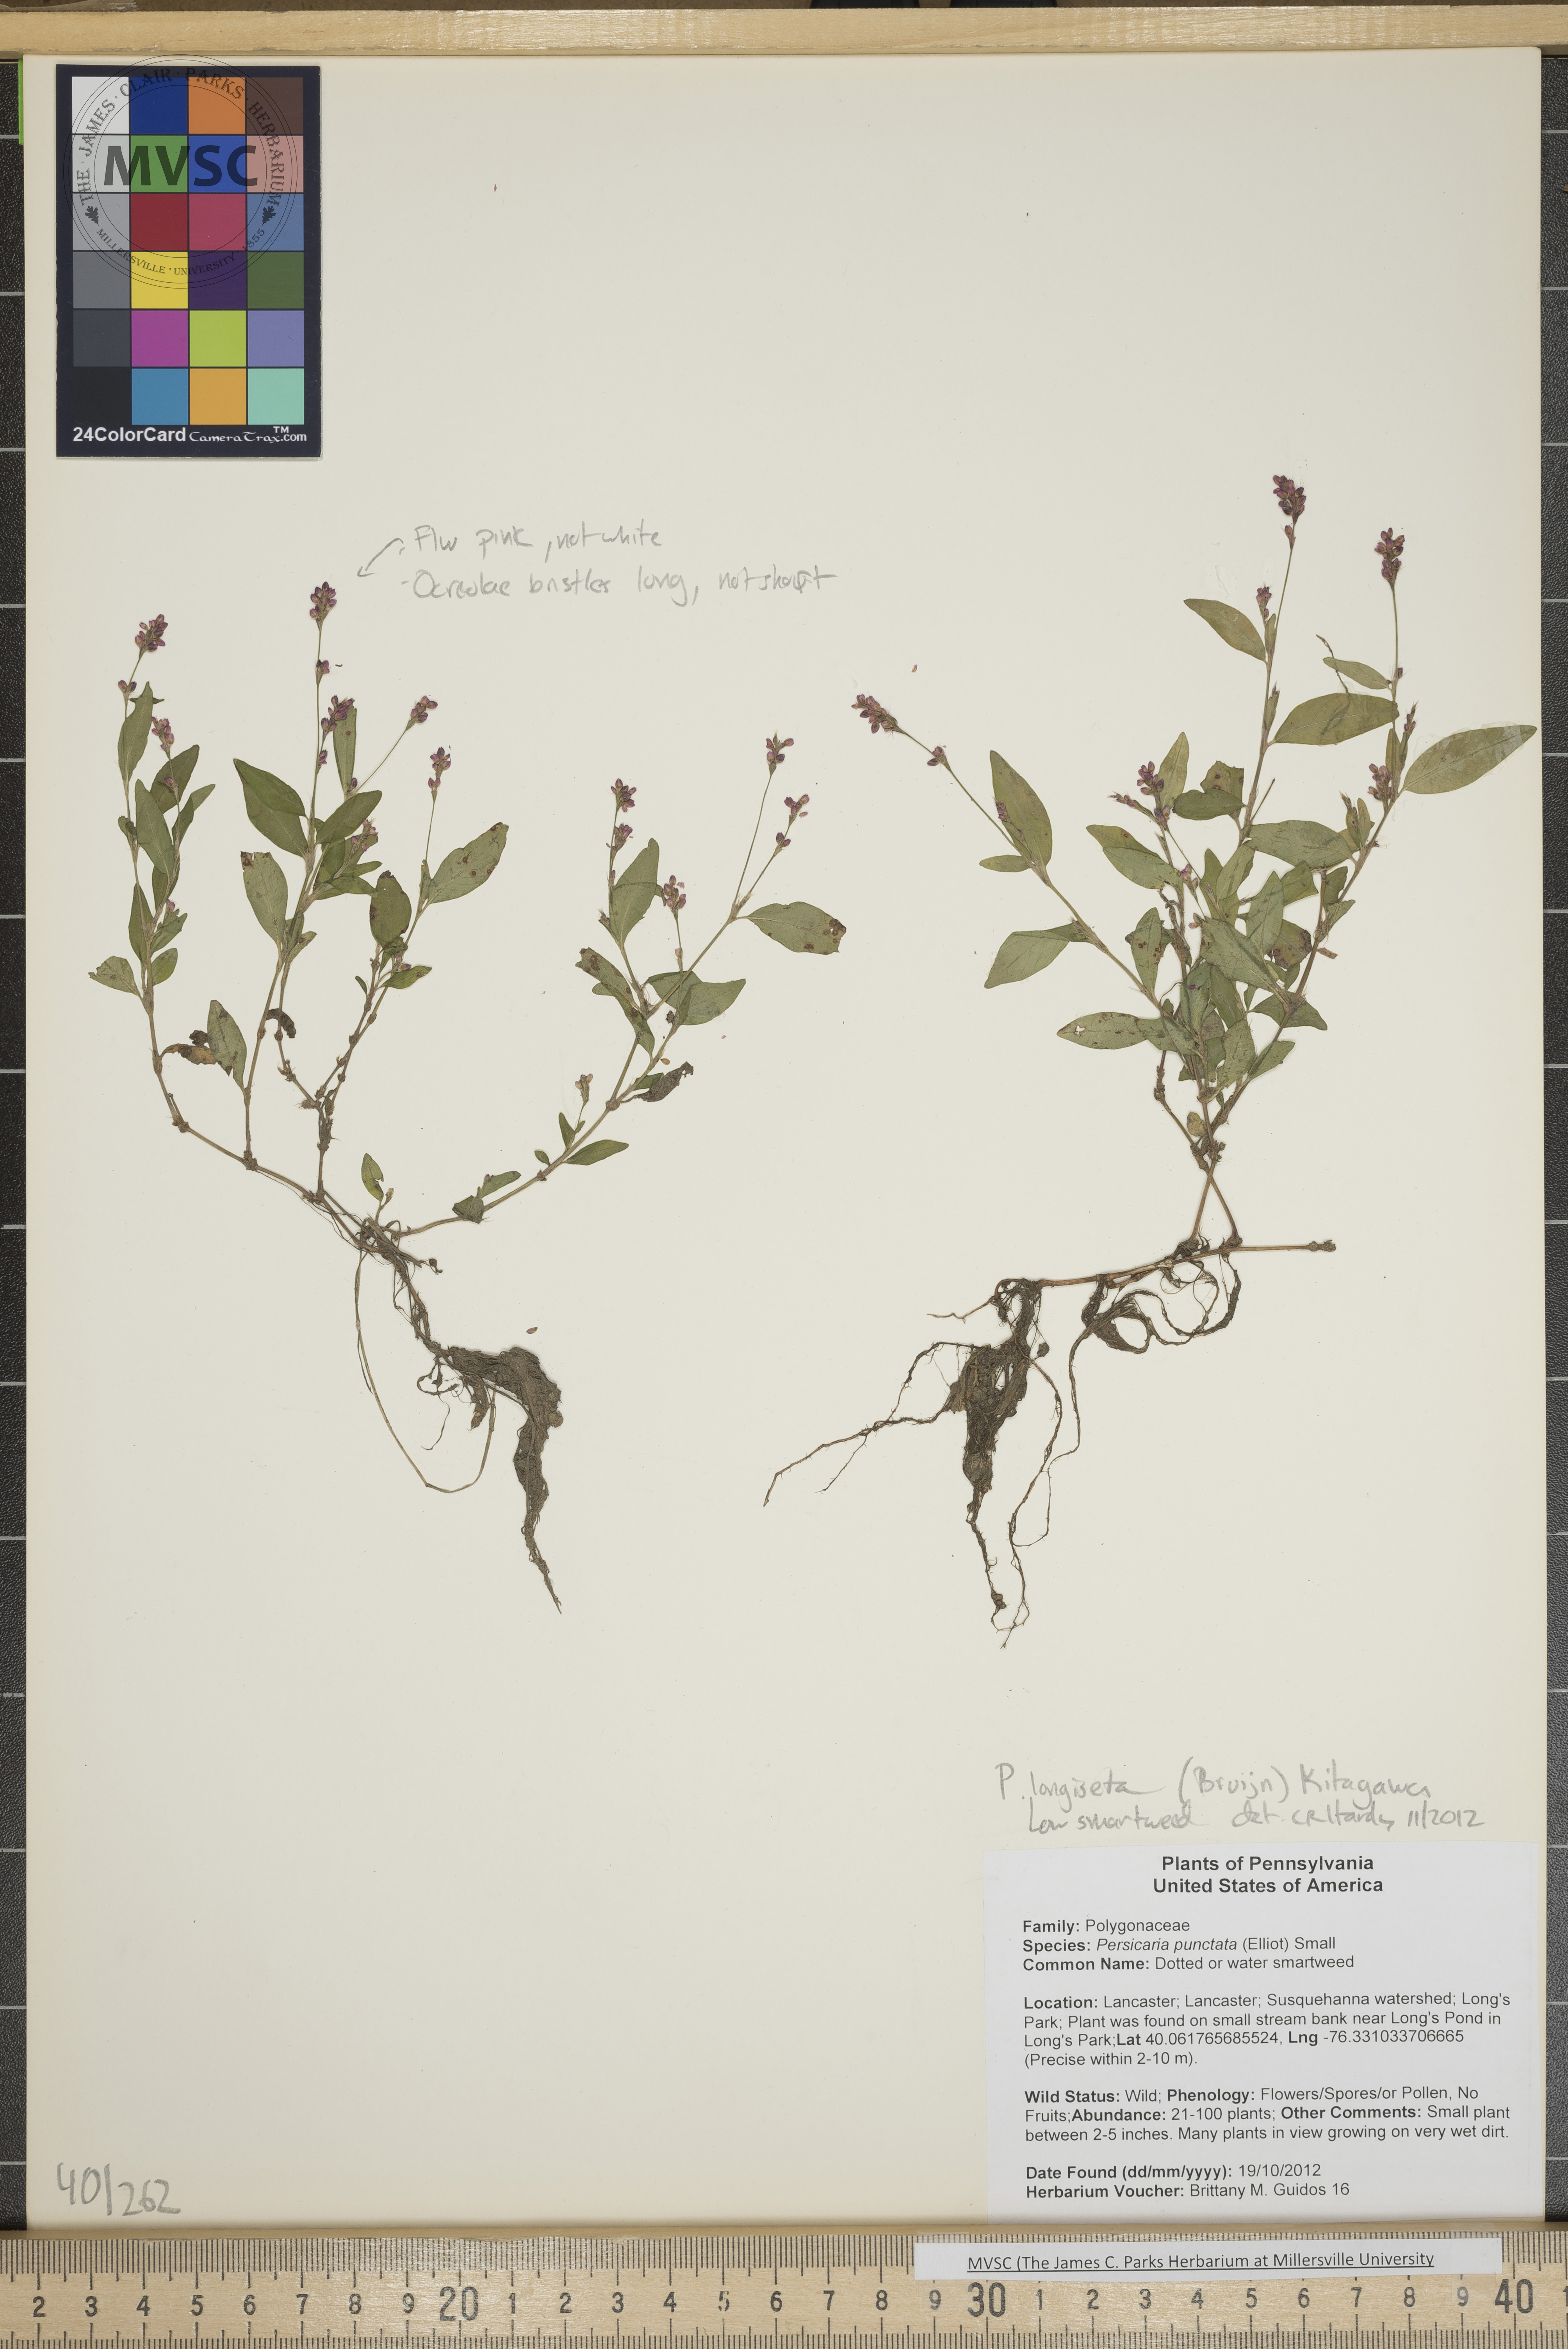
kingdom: Plantae
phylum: Tracheophyta
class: Magnoliopsida
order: Caryophyllales
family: Polygonaceae
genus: Persicaria
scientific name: Persicaria longiseta
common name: Low smartweed
